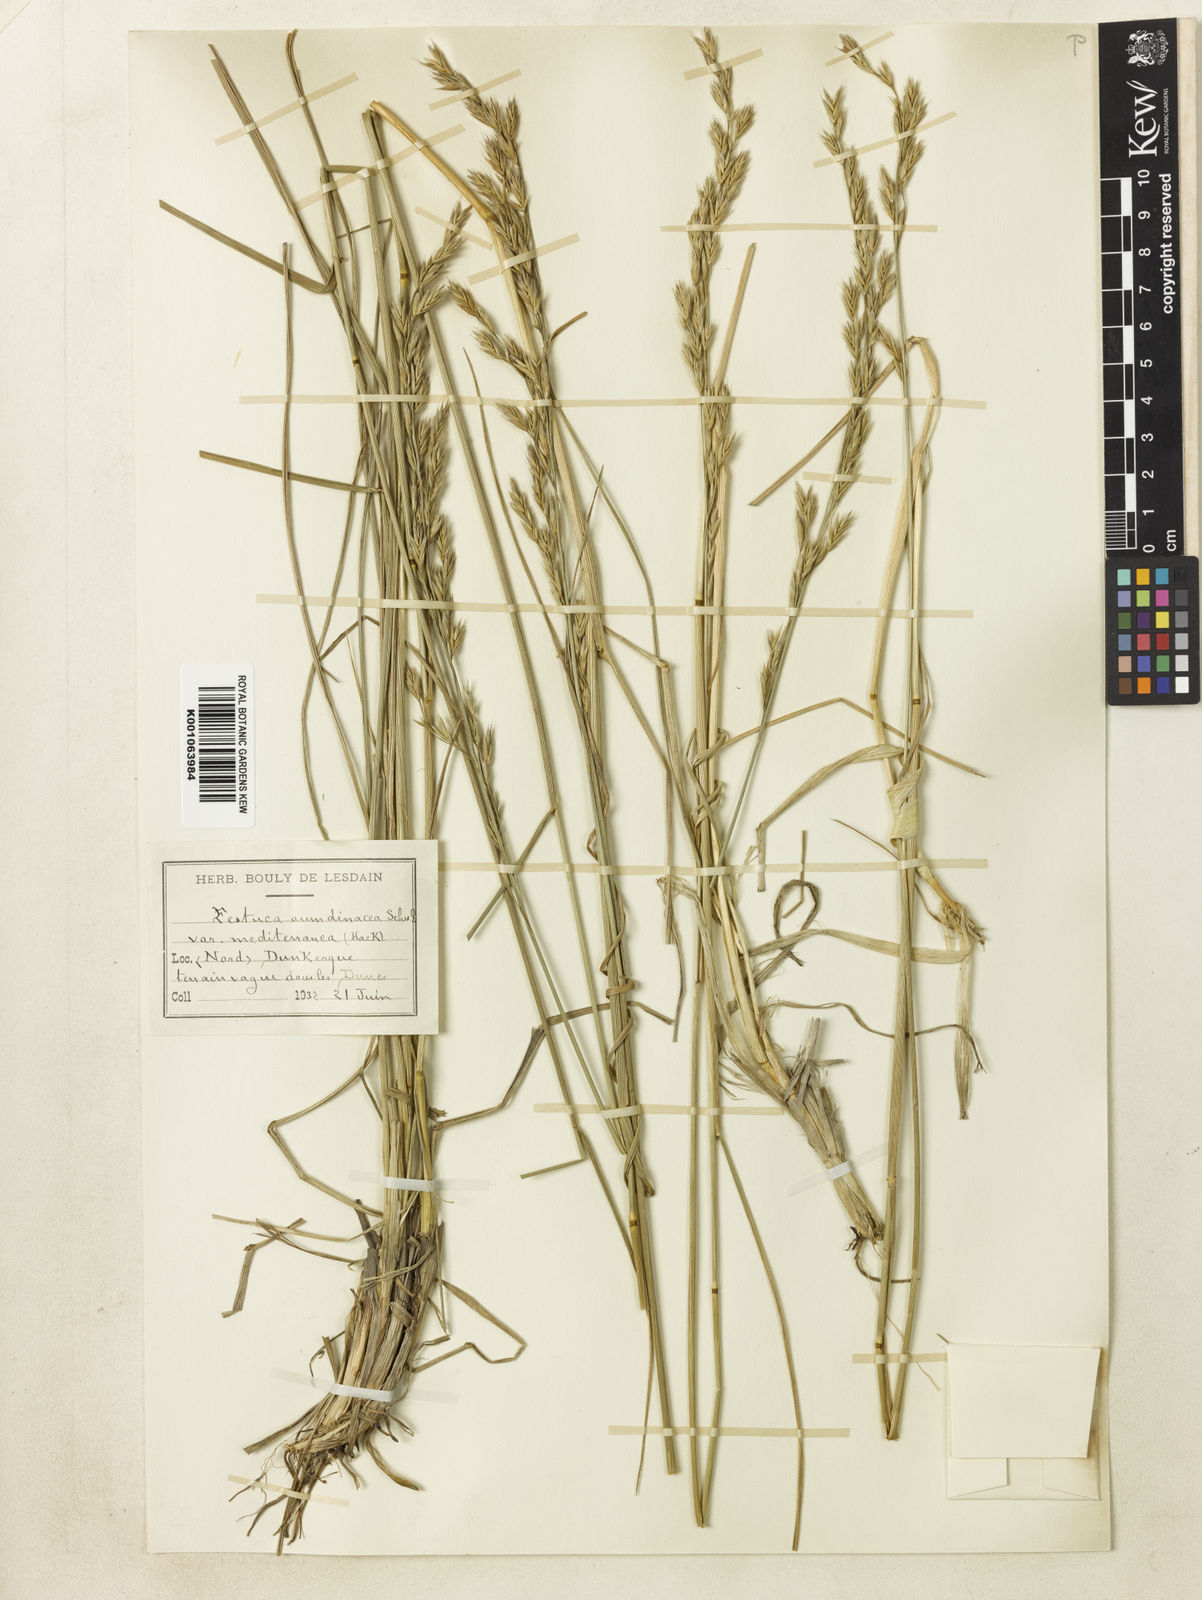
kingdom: Plantae
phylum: Tracheophyta
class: Liliopsida
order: Poales
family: Poaceae
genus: Lolium
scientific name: Lolium arundinaceum
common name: Reed fescue
